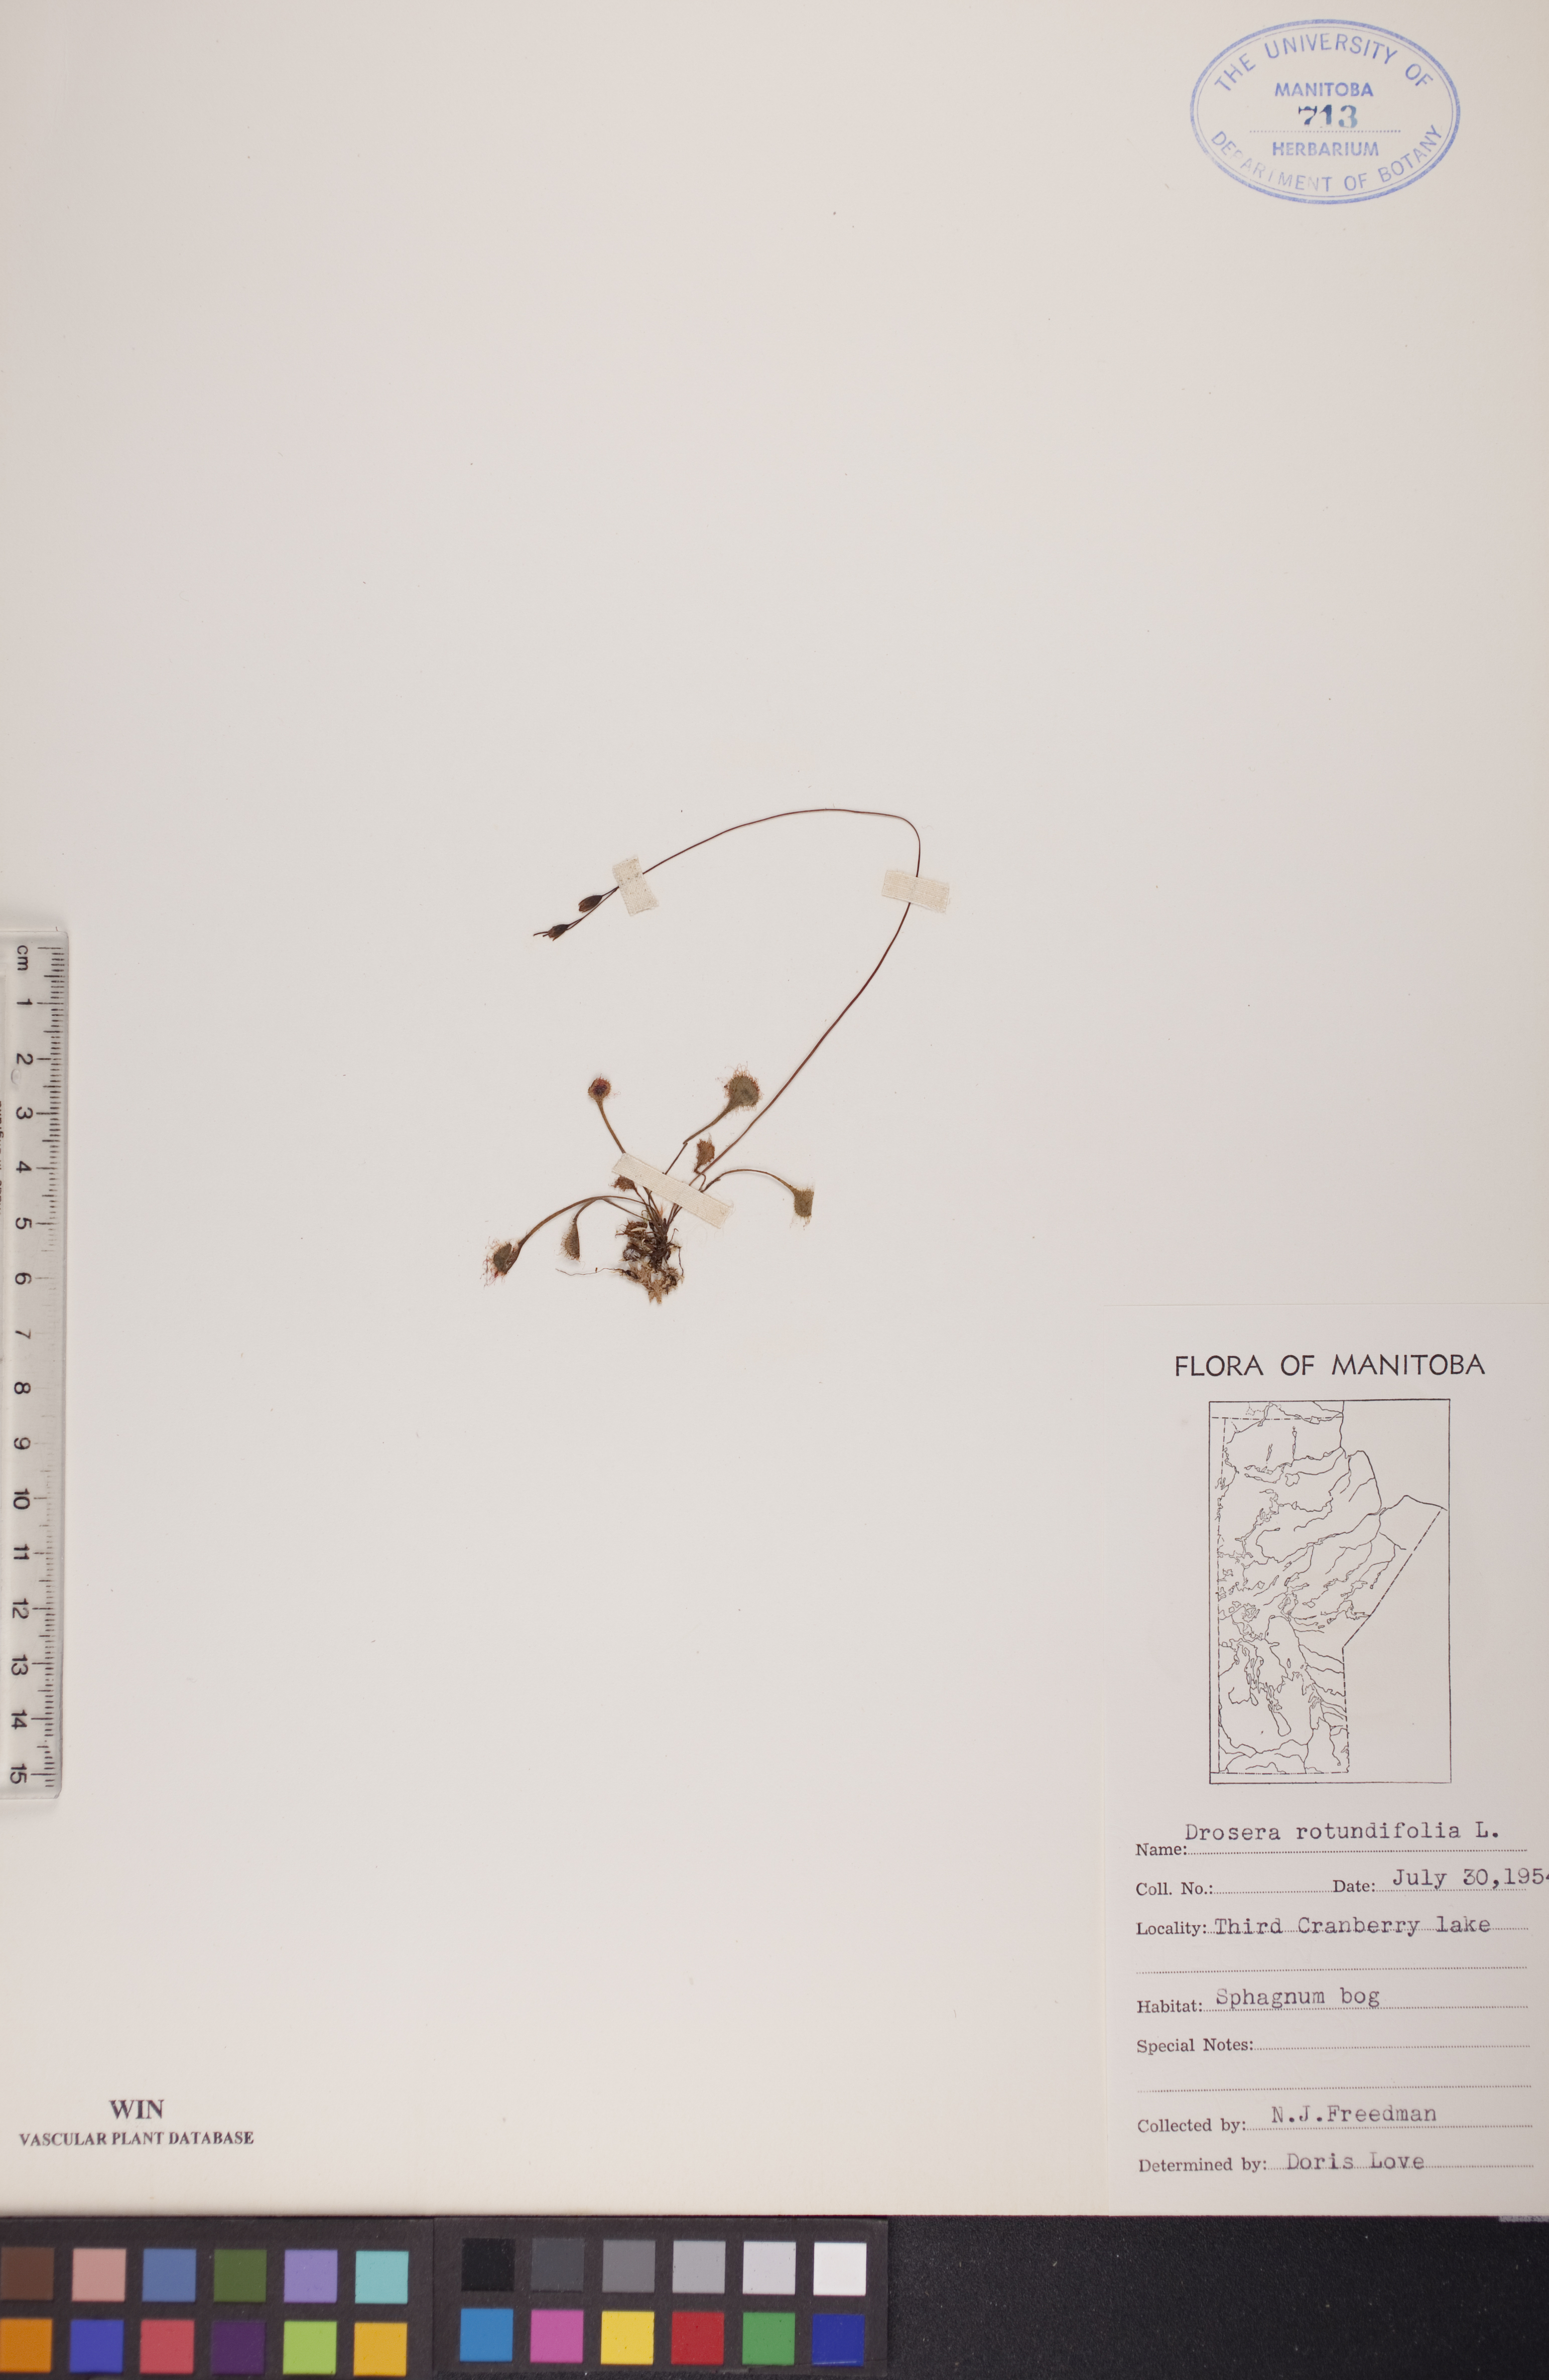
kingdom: Plantae
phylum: Tracheophyta
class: Magnoliopsida
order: Caryophyllales
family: Droseraceae
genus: Drosera
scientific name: Drosera rotundifolia
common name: Round-leaved sundew
